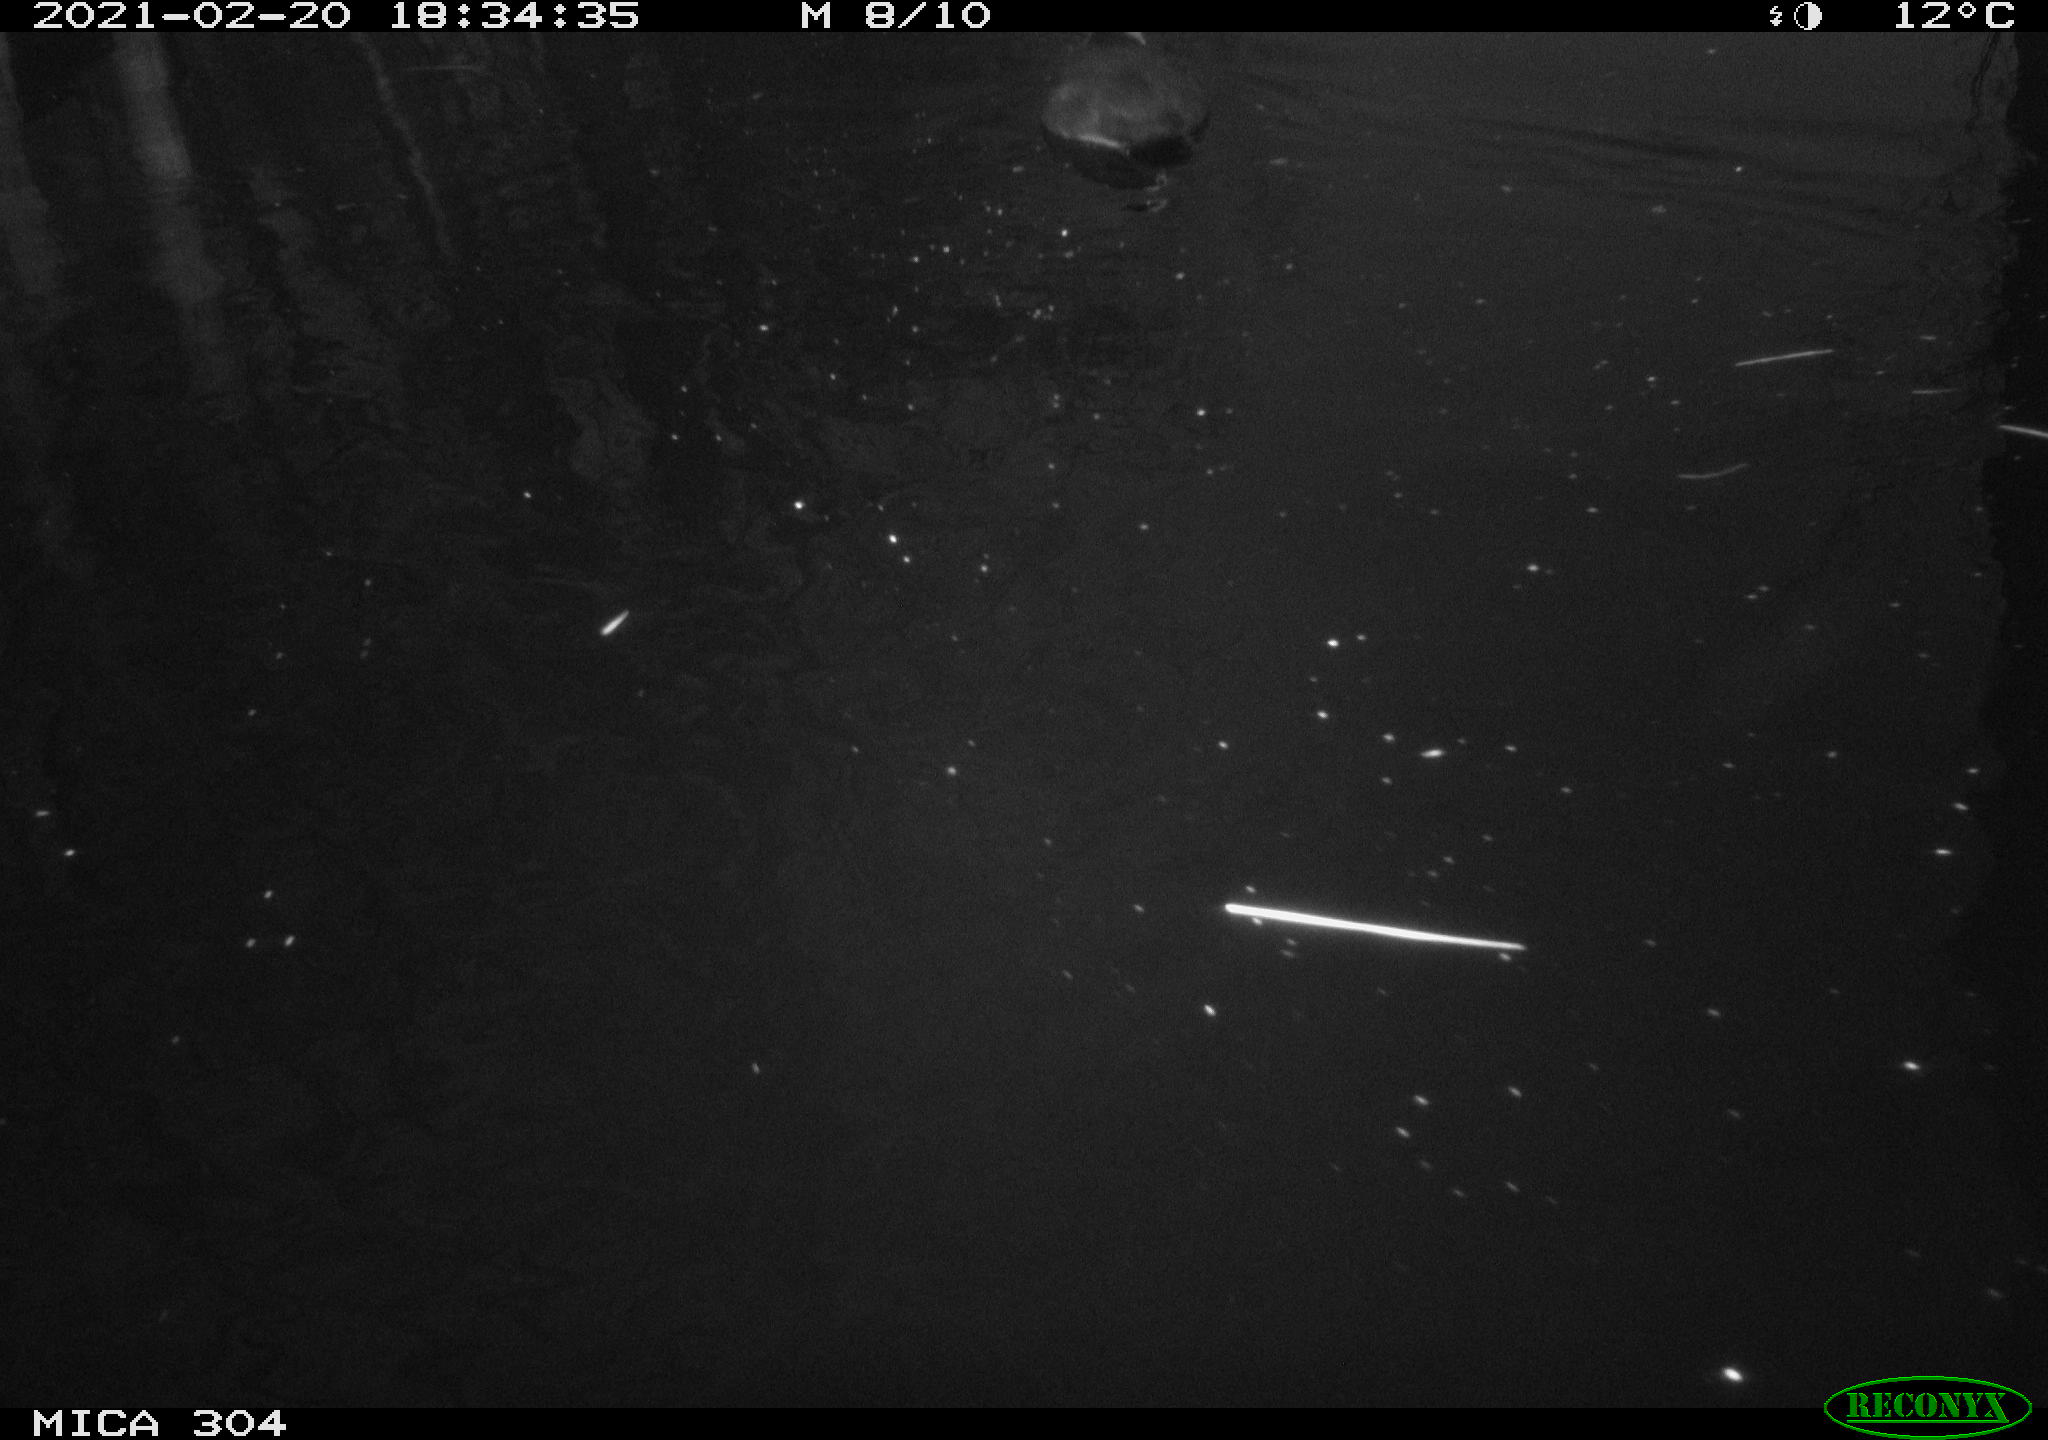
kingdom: Animalia
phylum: Chordata
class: Aves
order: Gruiformes
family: Rallidae
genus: Fulica
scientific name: Fulica atra
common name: Eurasian coot
